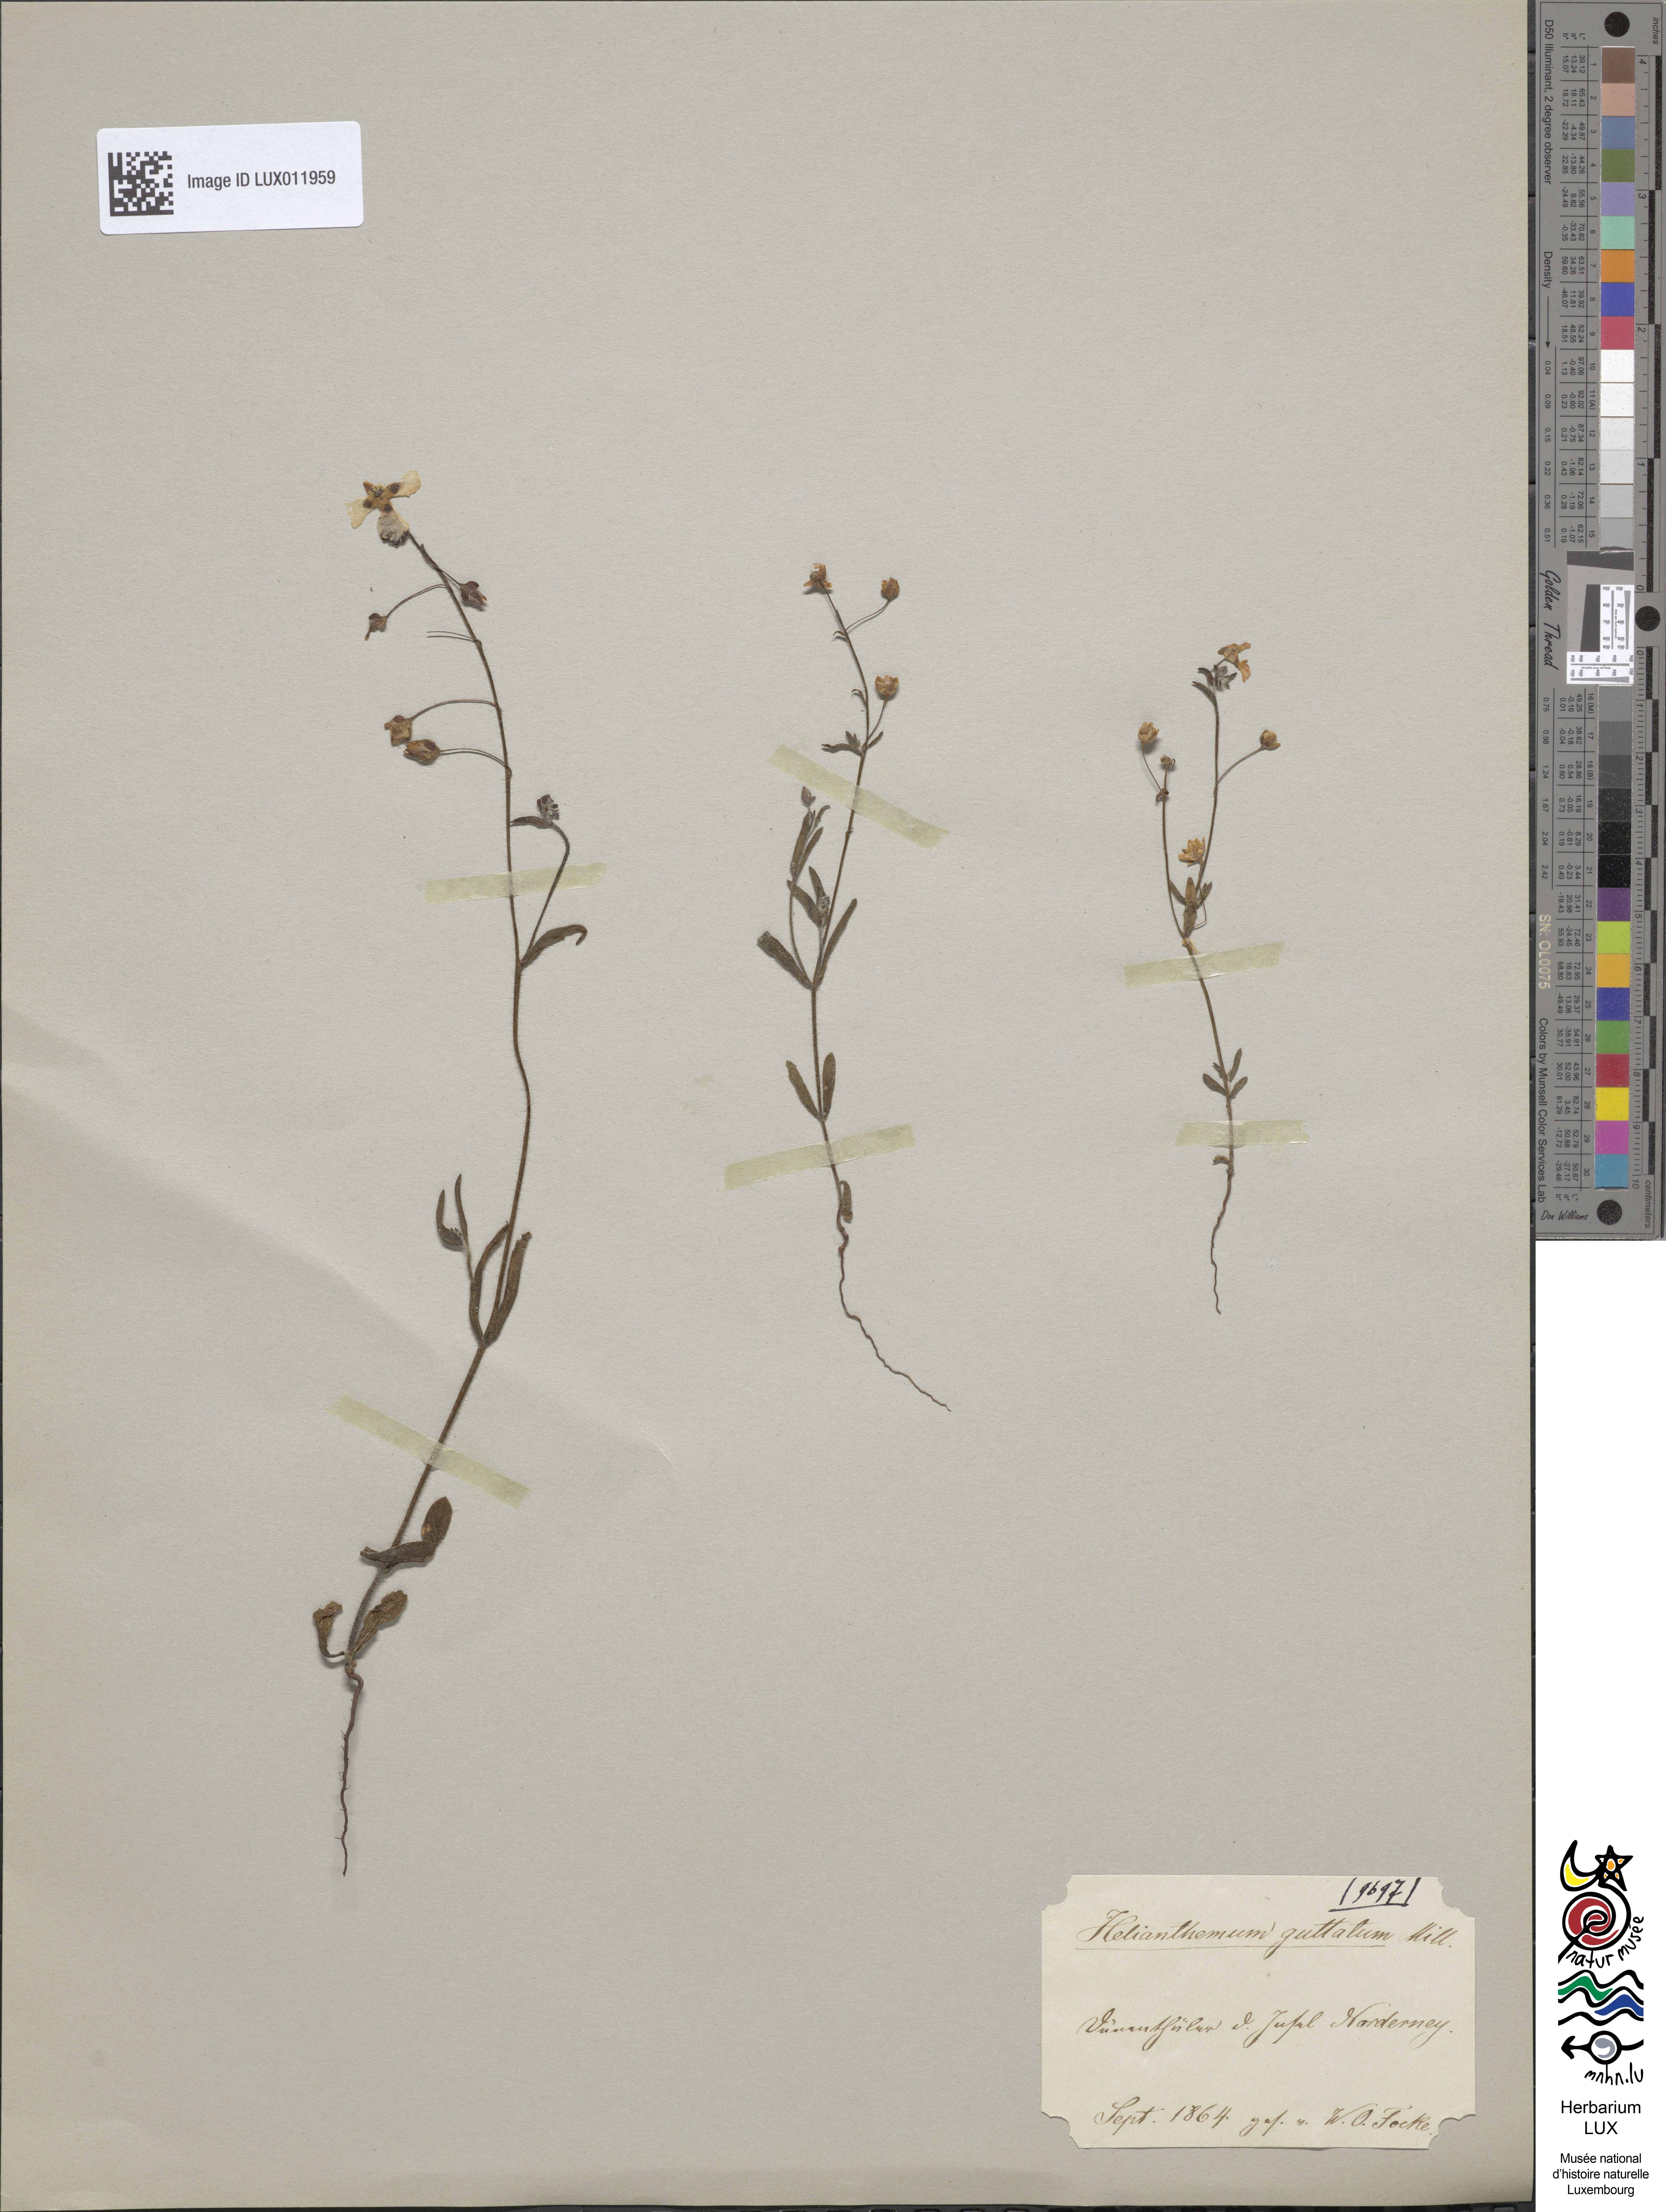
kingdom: Plantae
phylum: Tracheophyta
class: Magnoliopsida
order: Malvales
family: Cistaceae
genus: Tuberaria
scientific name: Tuberaria guttata
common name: Spotted rock-rose
